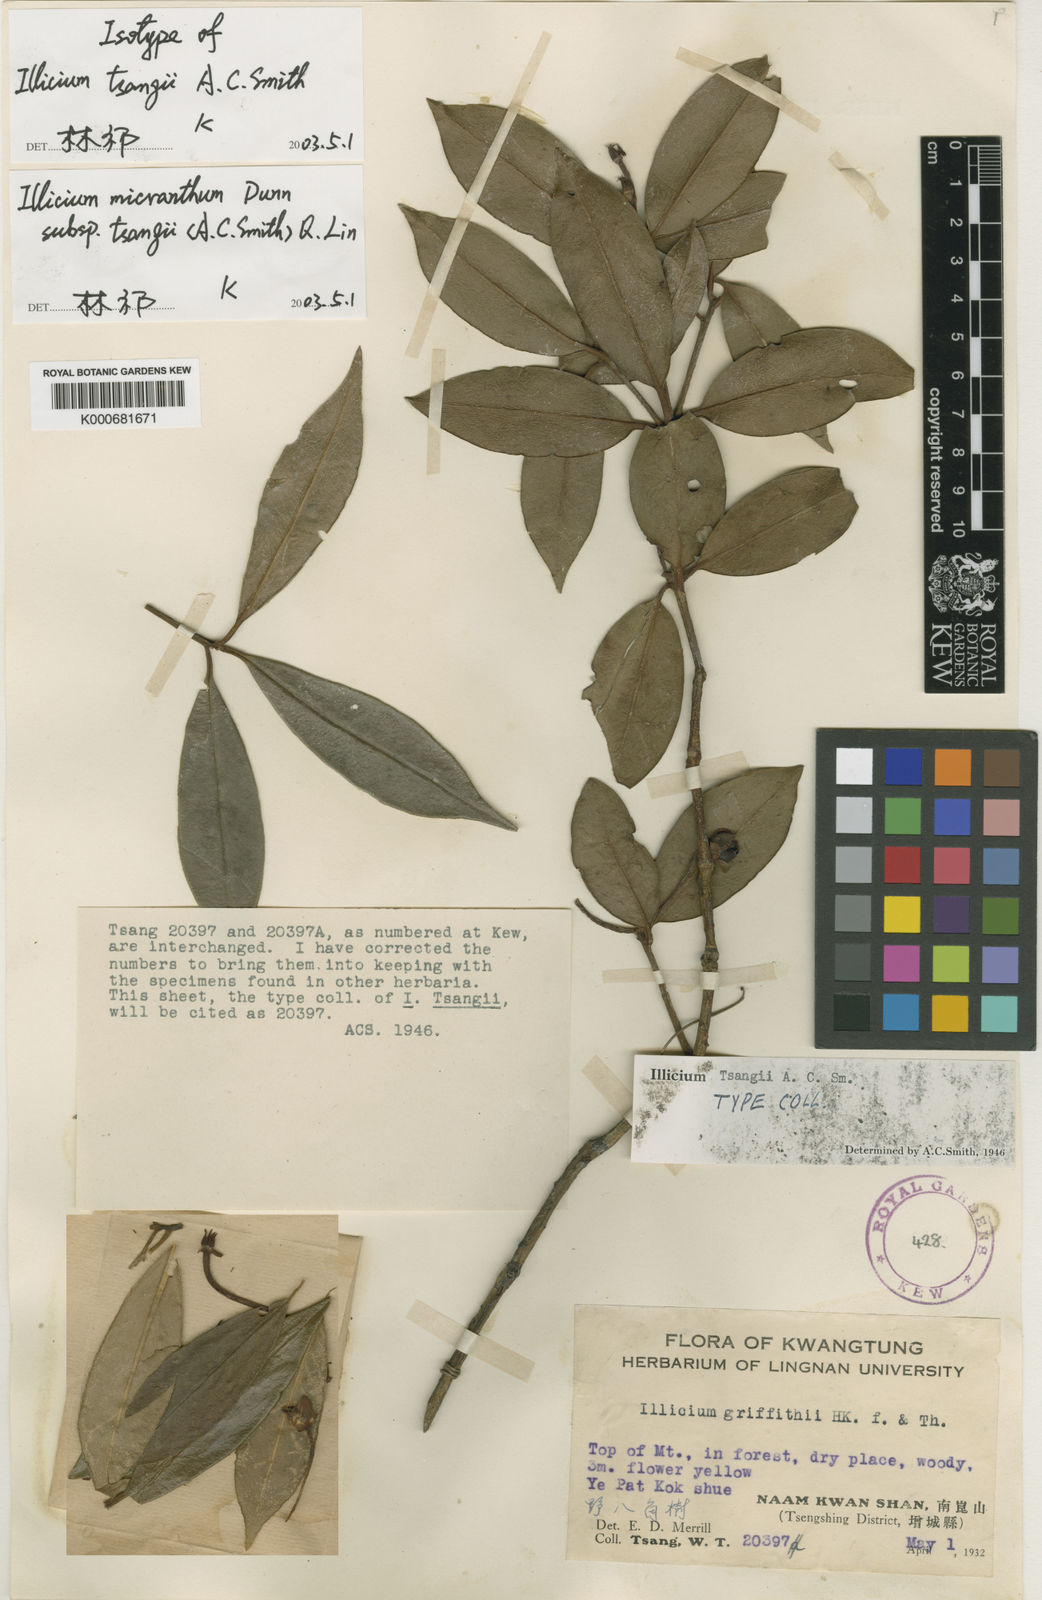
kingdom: Plantae
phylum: Tracheophyta
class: Magnoliopsida
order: Austrobaileyales
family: Schisandraceae
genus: Illicium
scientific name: Illicium micranthum
